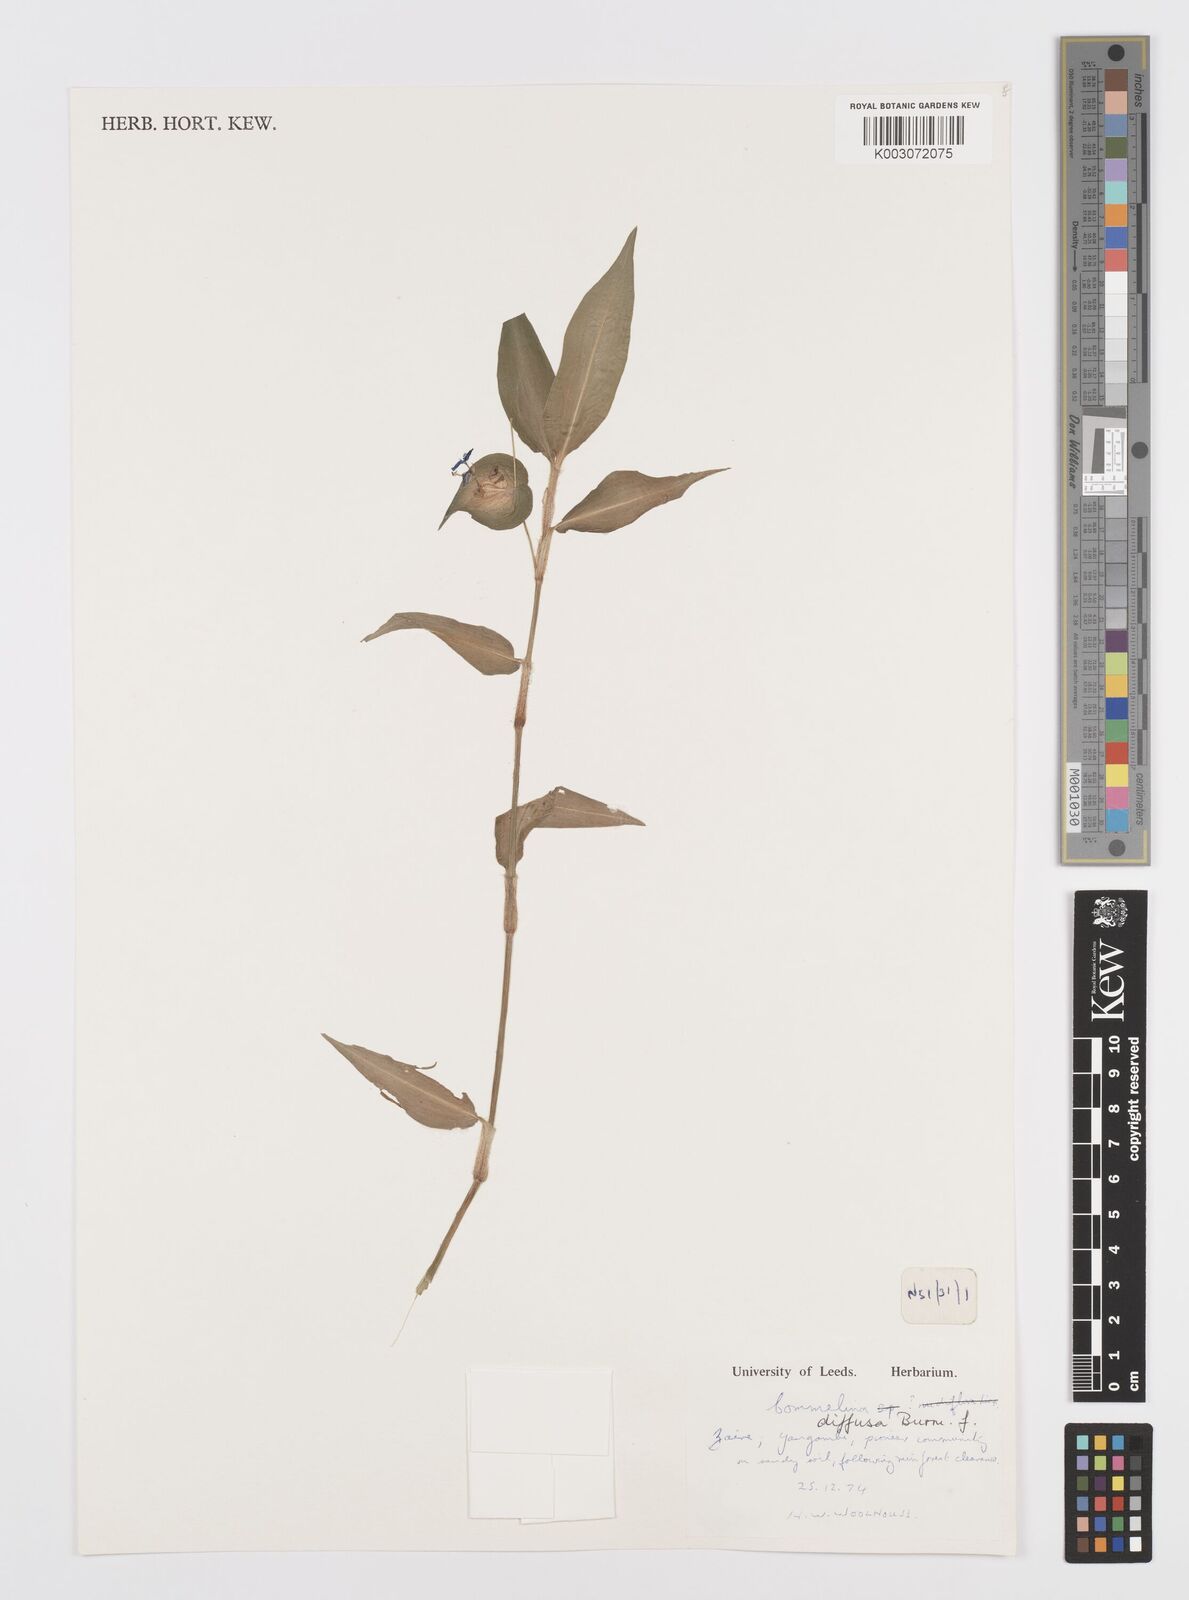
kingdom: Plantae
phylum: Tracheophyta
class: Liliopsida
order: Commelinales
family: Commelinaceae
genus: Commelina
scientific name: Commelina diffusa
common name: Climbing dayflower
